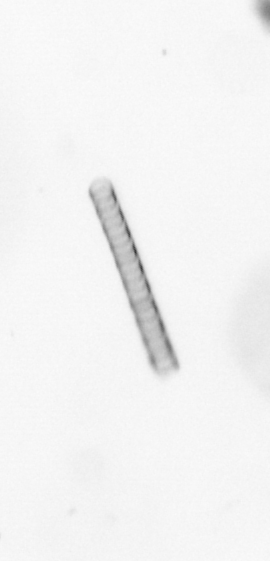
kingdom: Chromista
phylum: Ochrophyta
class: Bacillariophyceae
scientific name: Bacillariophyceae
